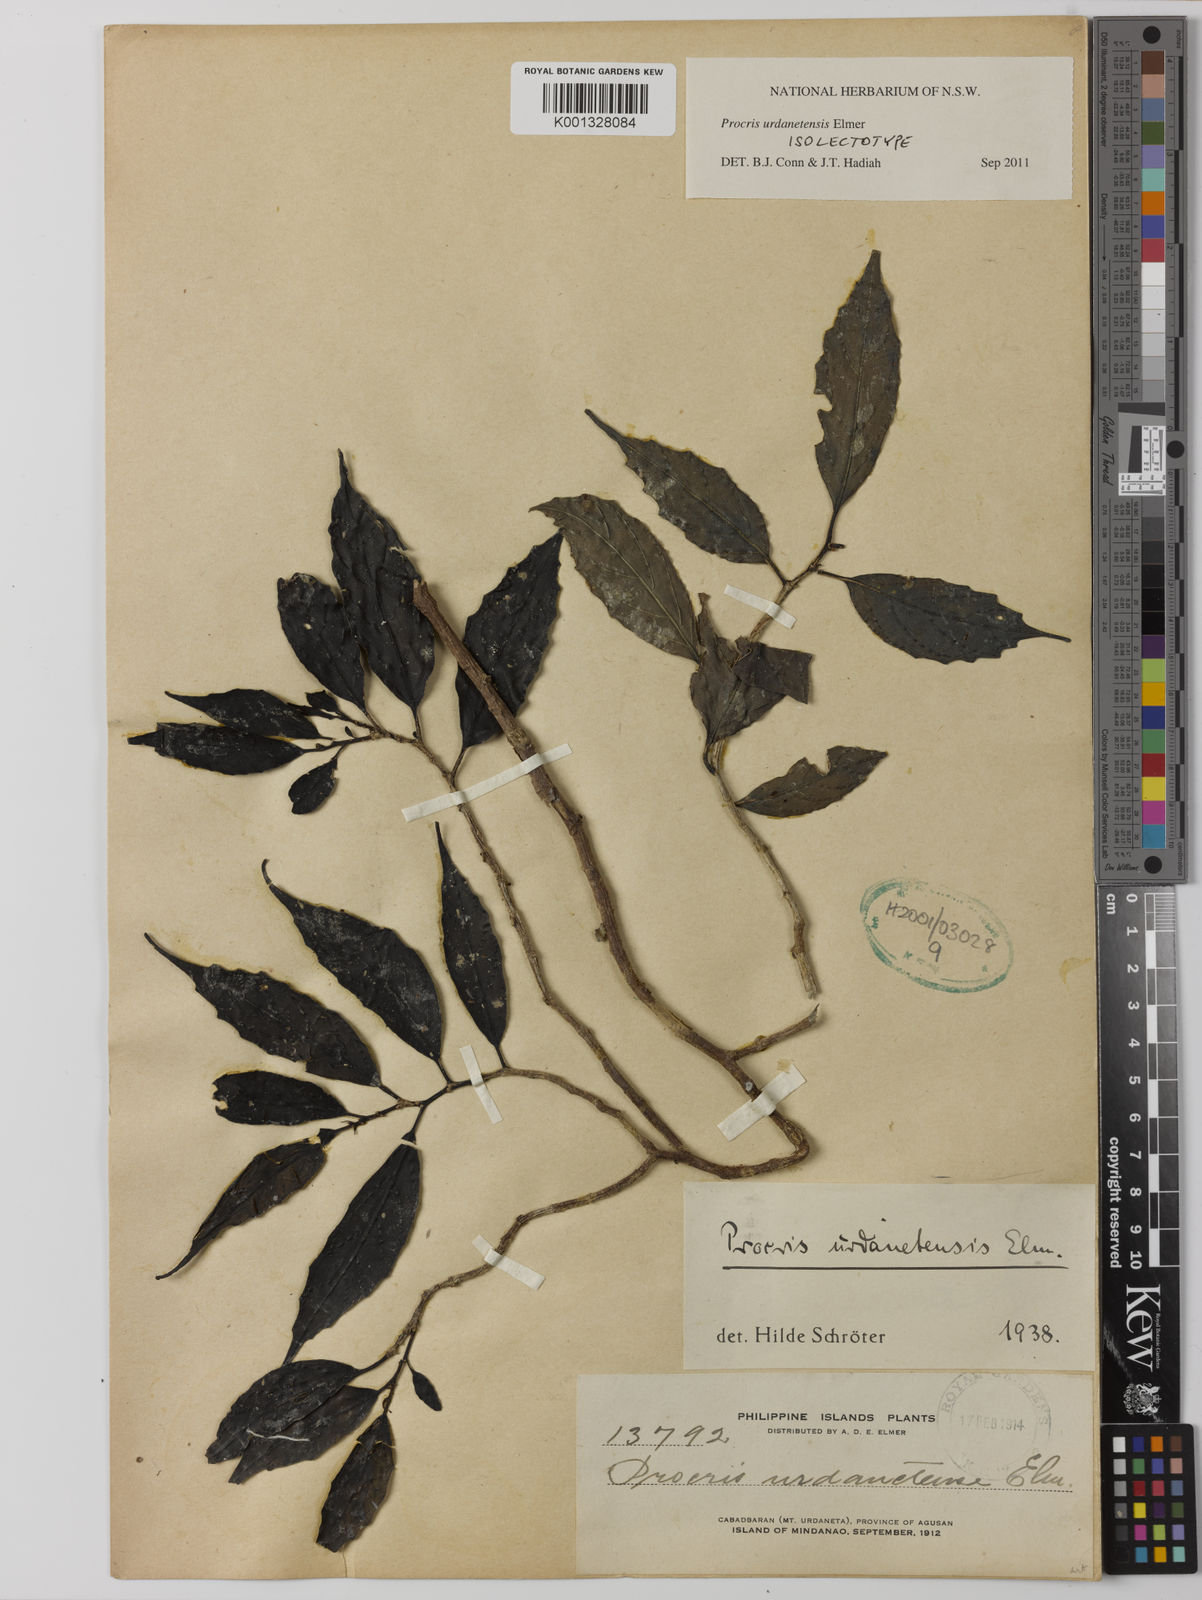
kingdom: Plantae
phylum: Tracheophyta
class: Magnoliopsida
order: Rosales
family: Urticaceae
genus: Procris
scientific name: Procris urdanetensis
